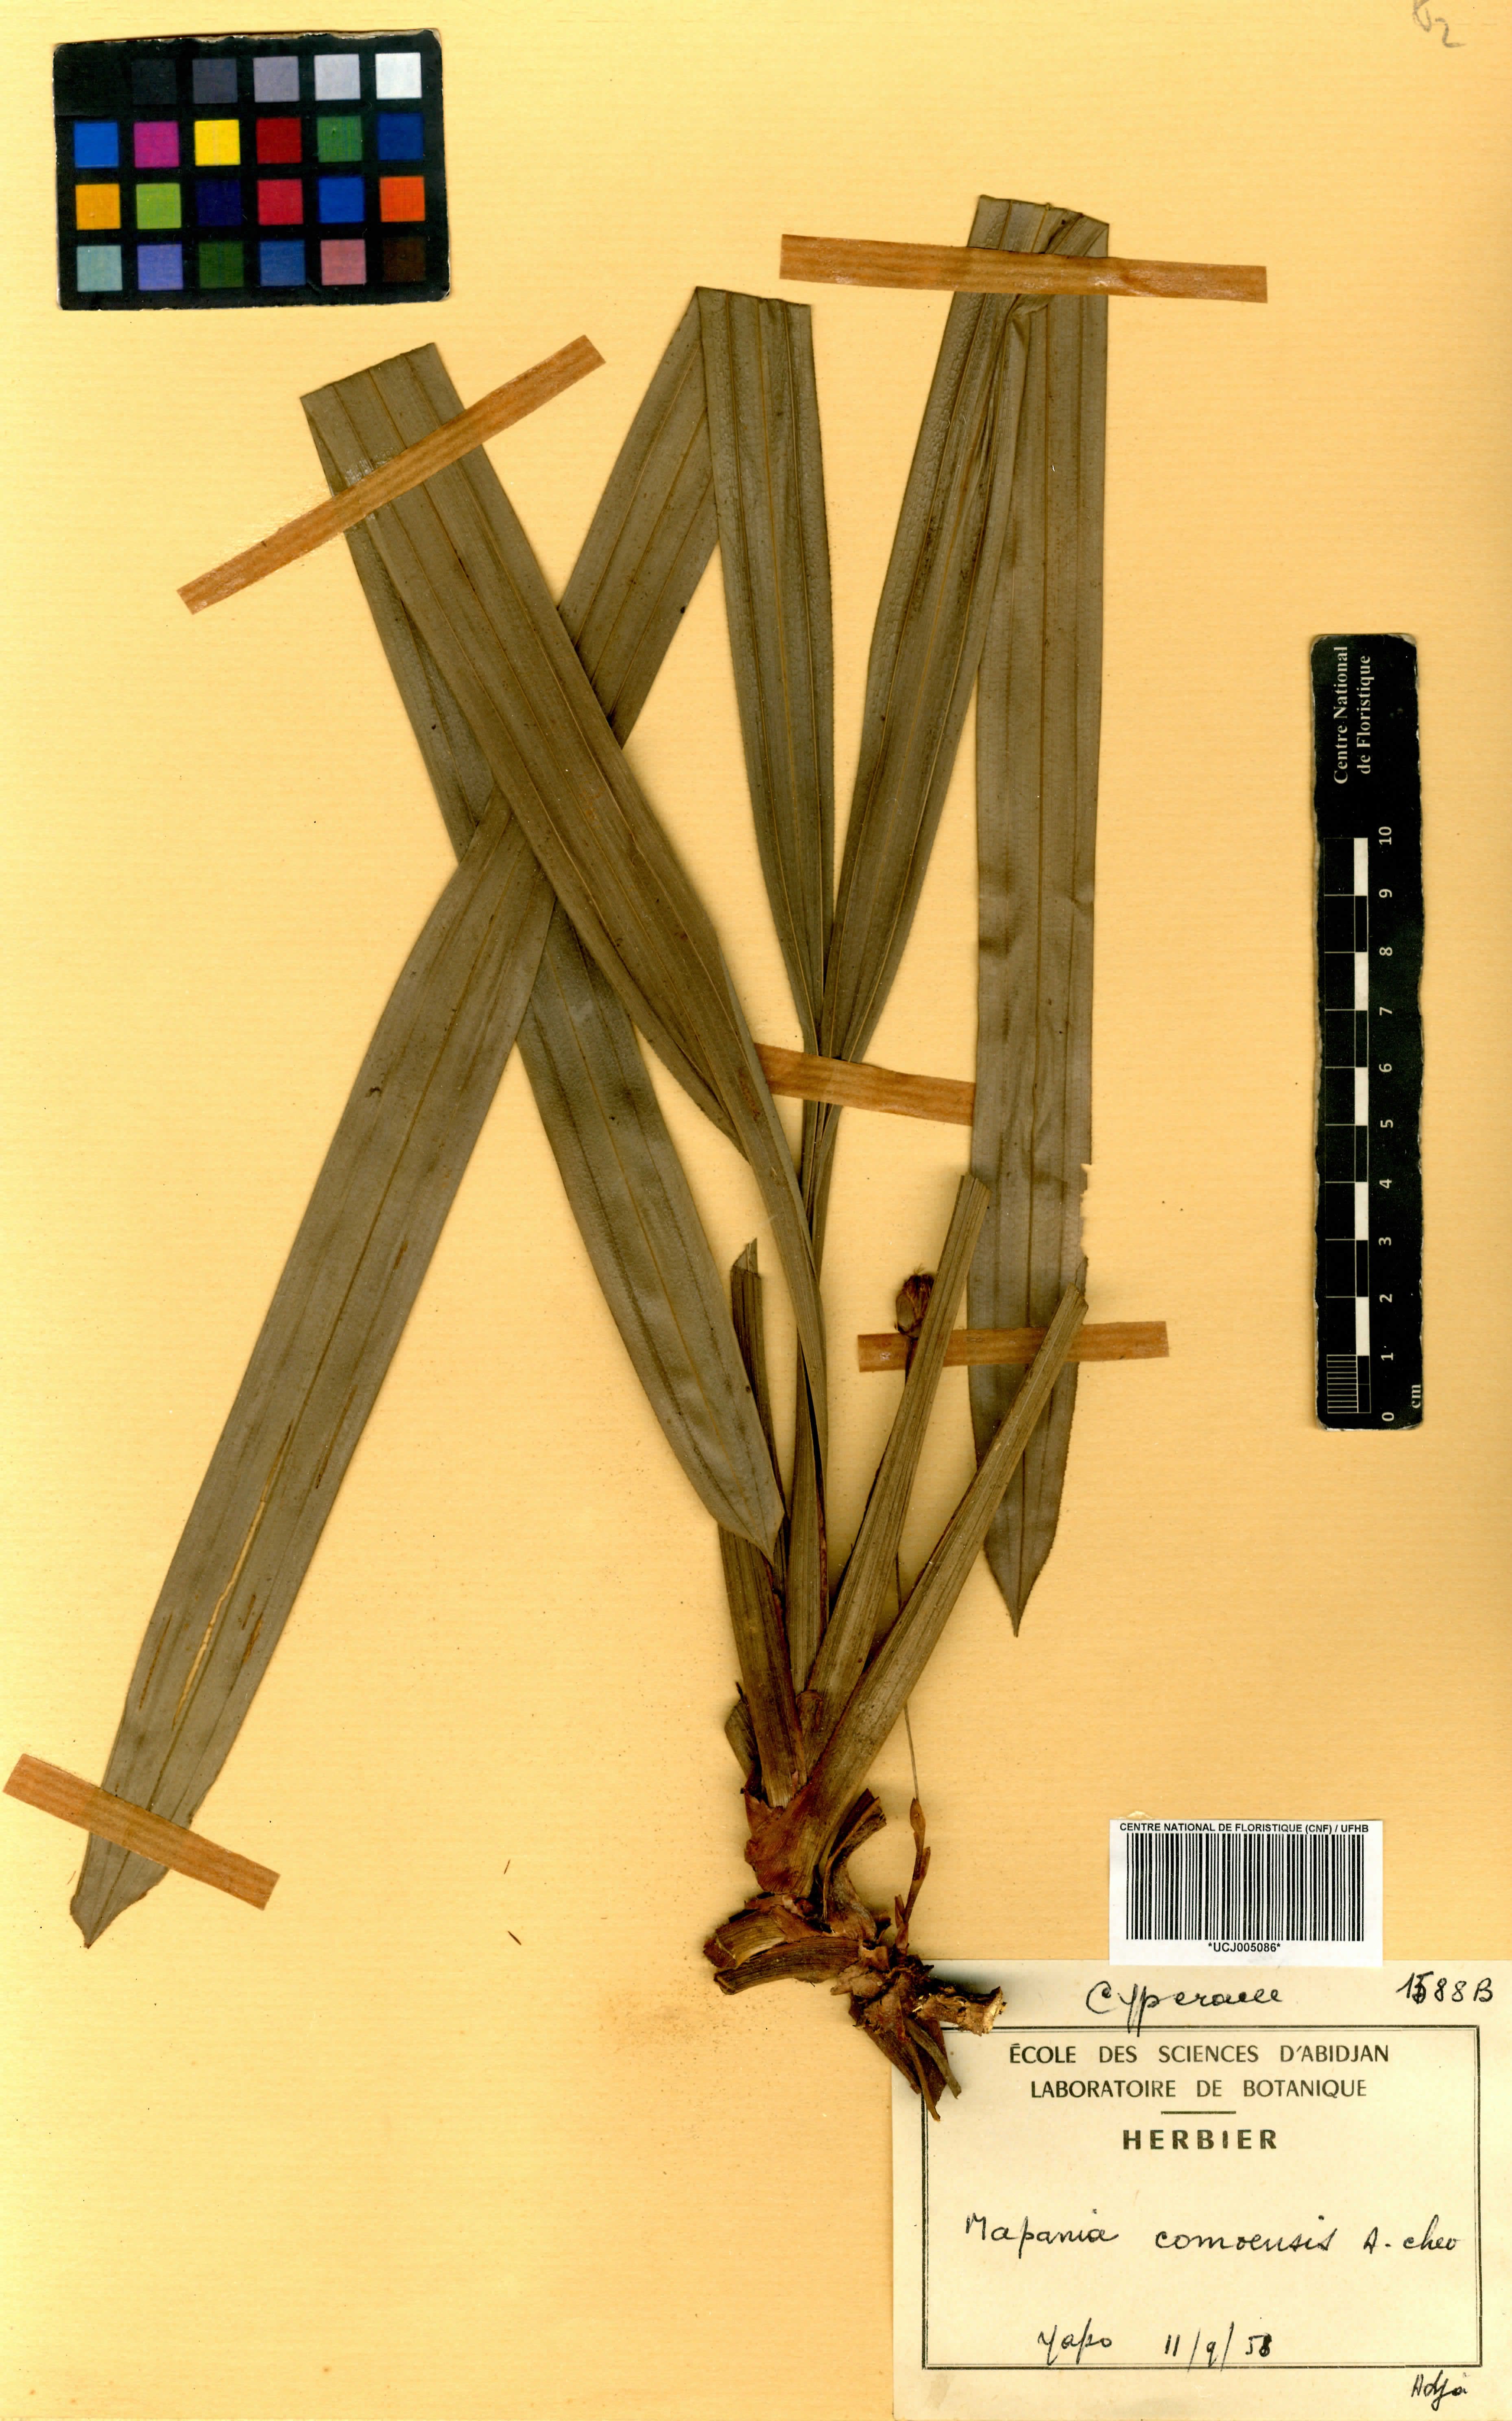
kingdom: Plantae
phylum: Tracheophyta
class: Liliopsida
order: Poales
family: Cyperaceae
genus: Mapania
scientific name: Mapania baldwinii
